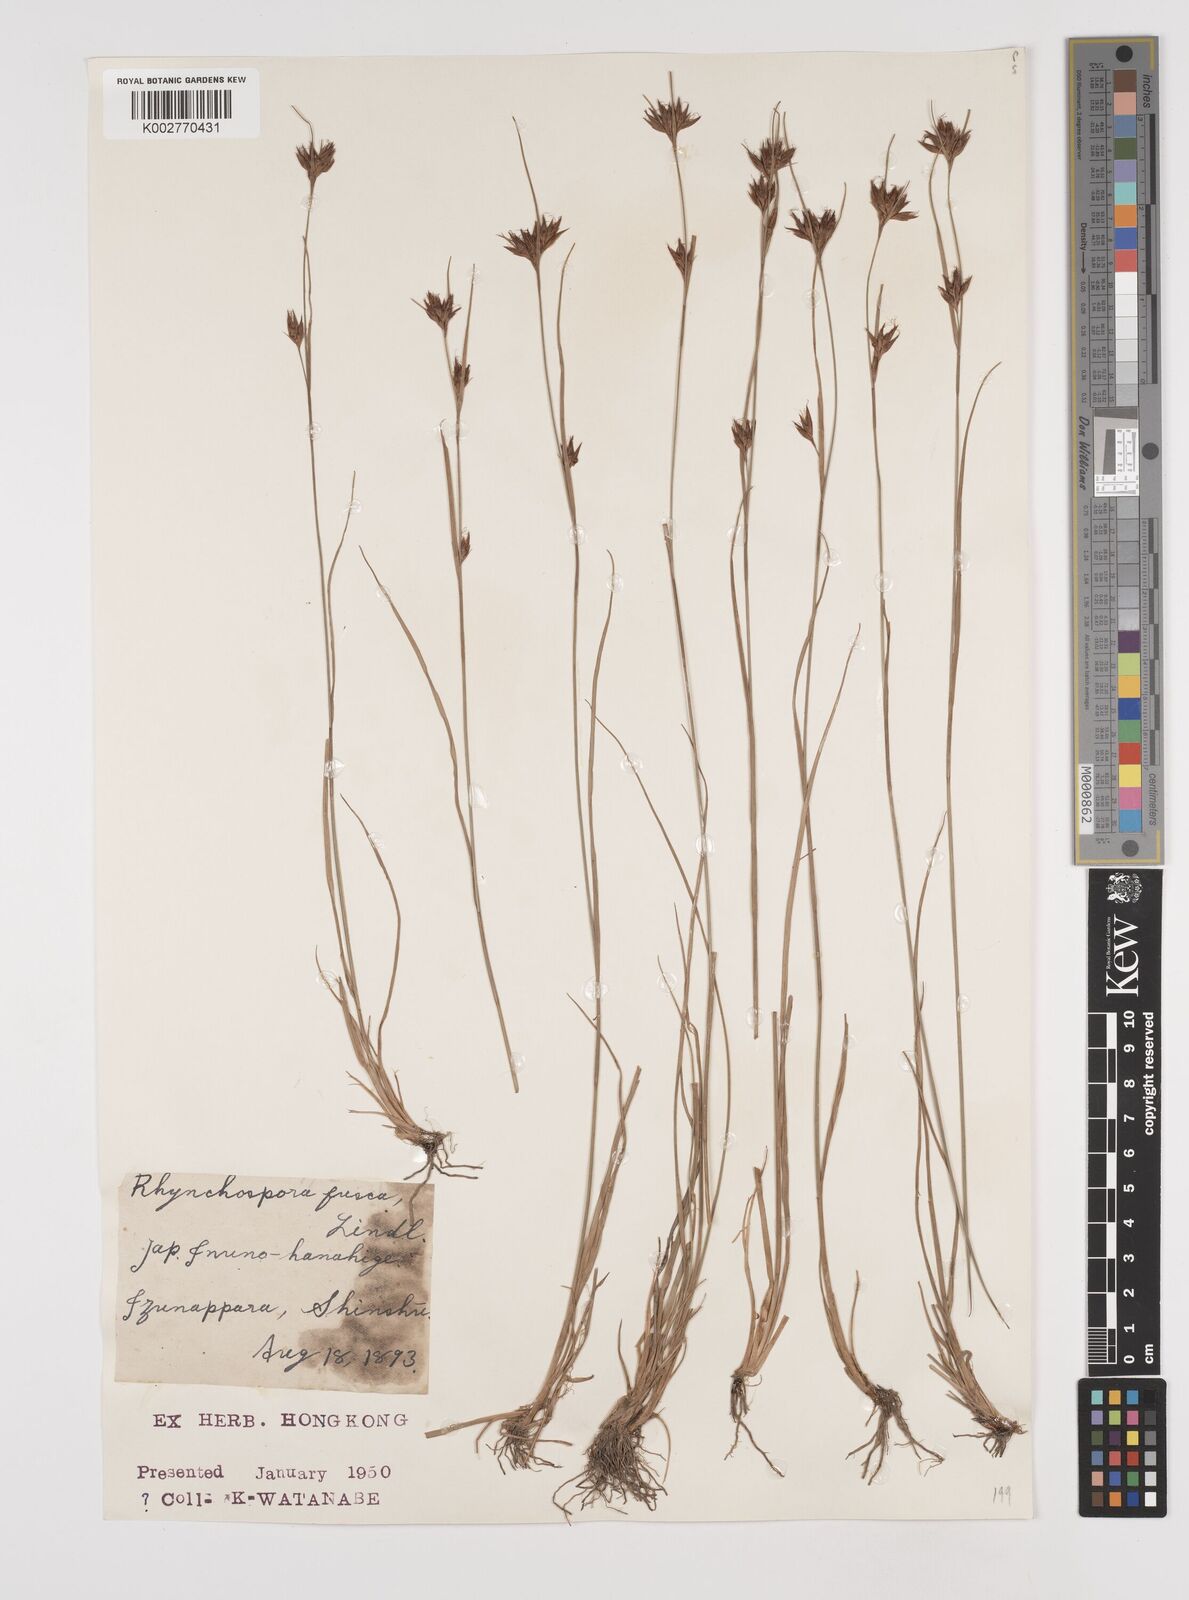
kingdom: Plantae
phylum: Tracheophyta
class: Liliopsida
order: Poales
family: Cyperaceae
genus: Rhynchospora
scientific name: Rhynchospora fusca
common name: Brown beak-sedge
